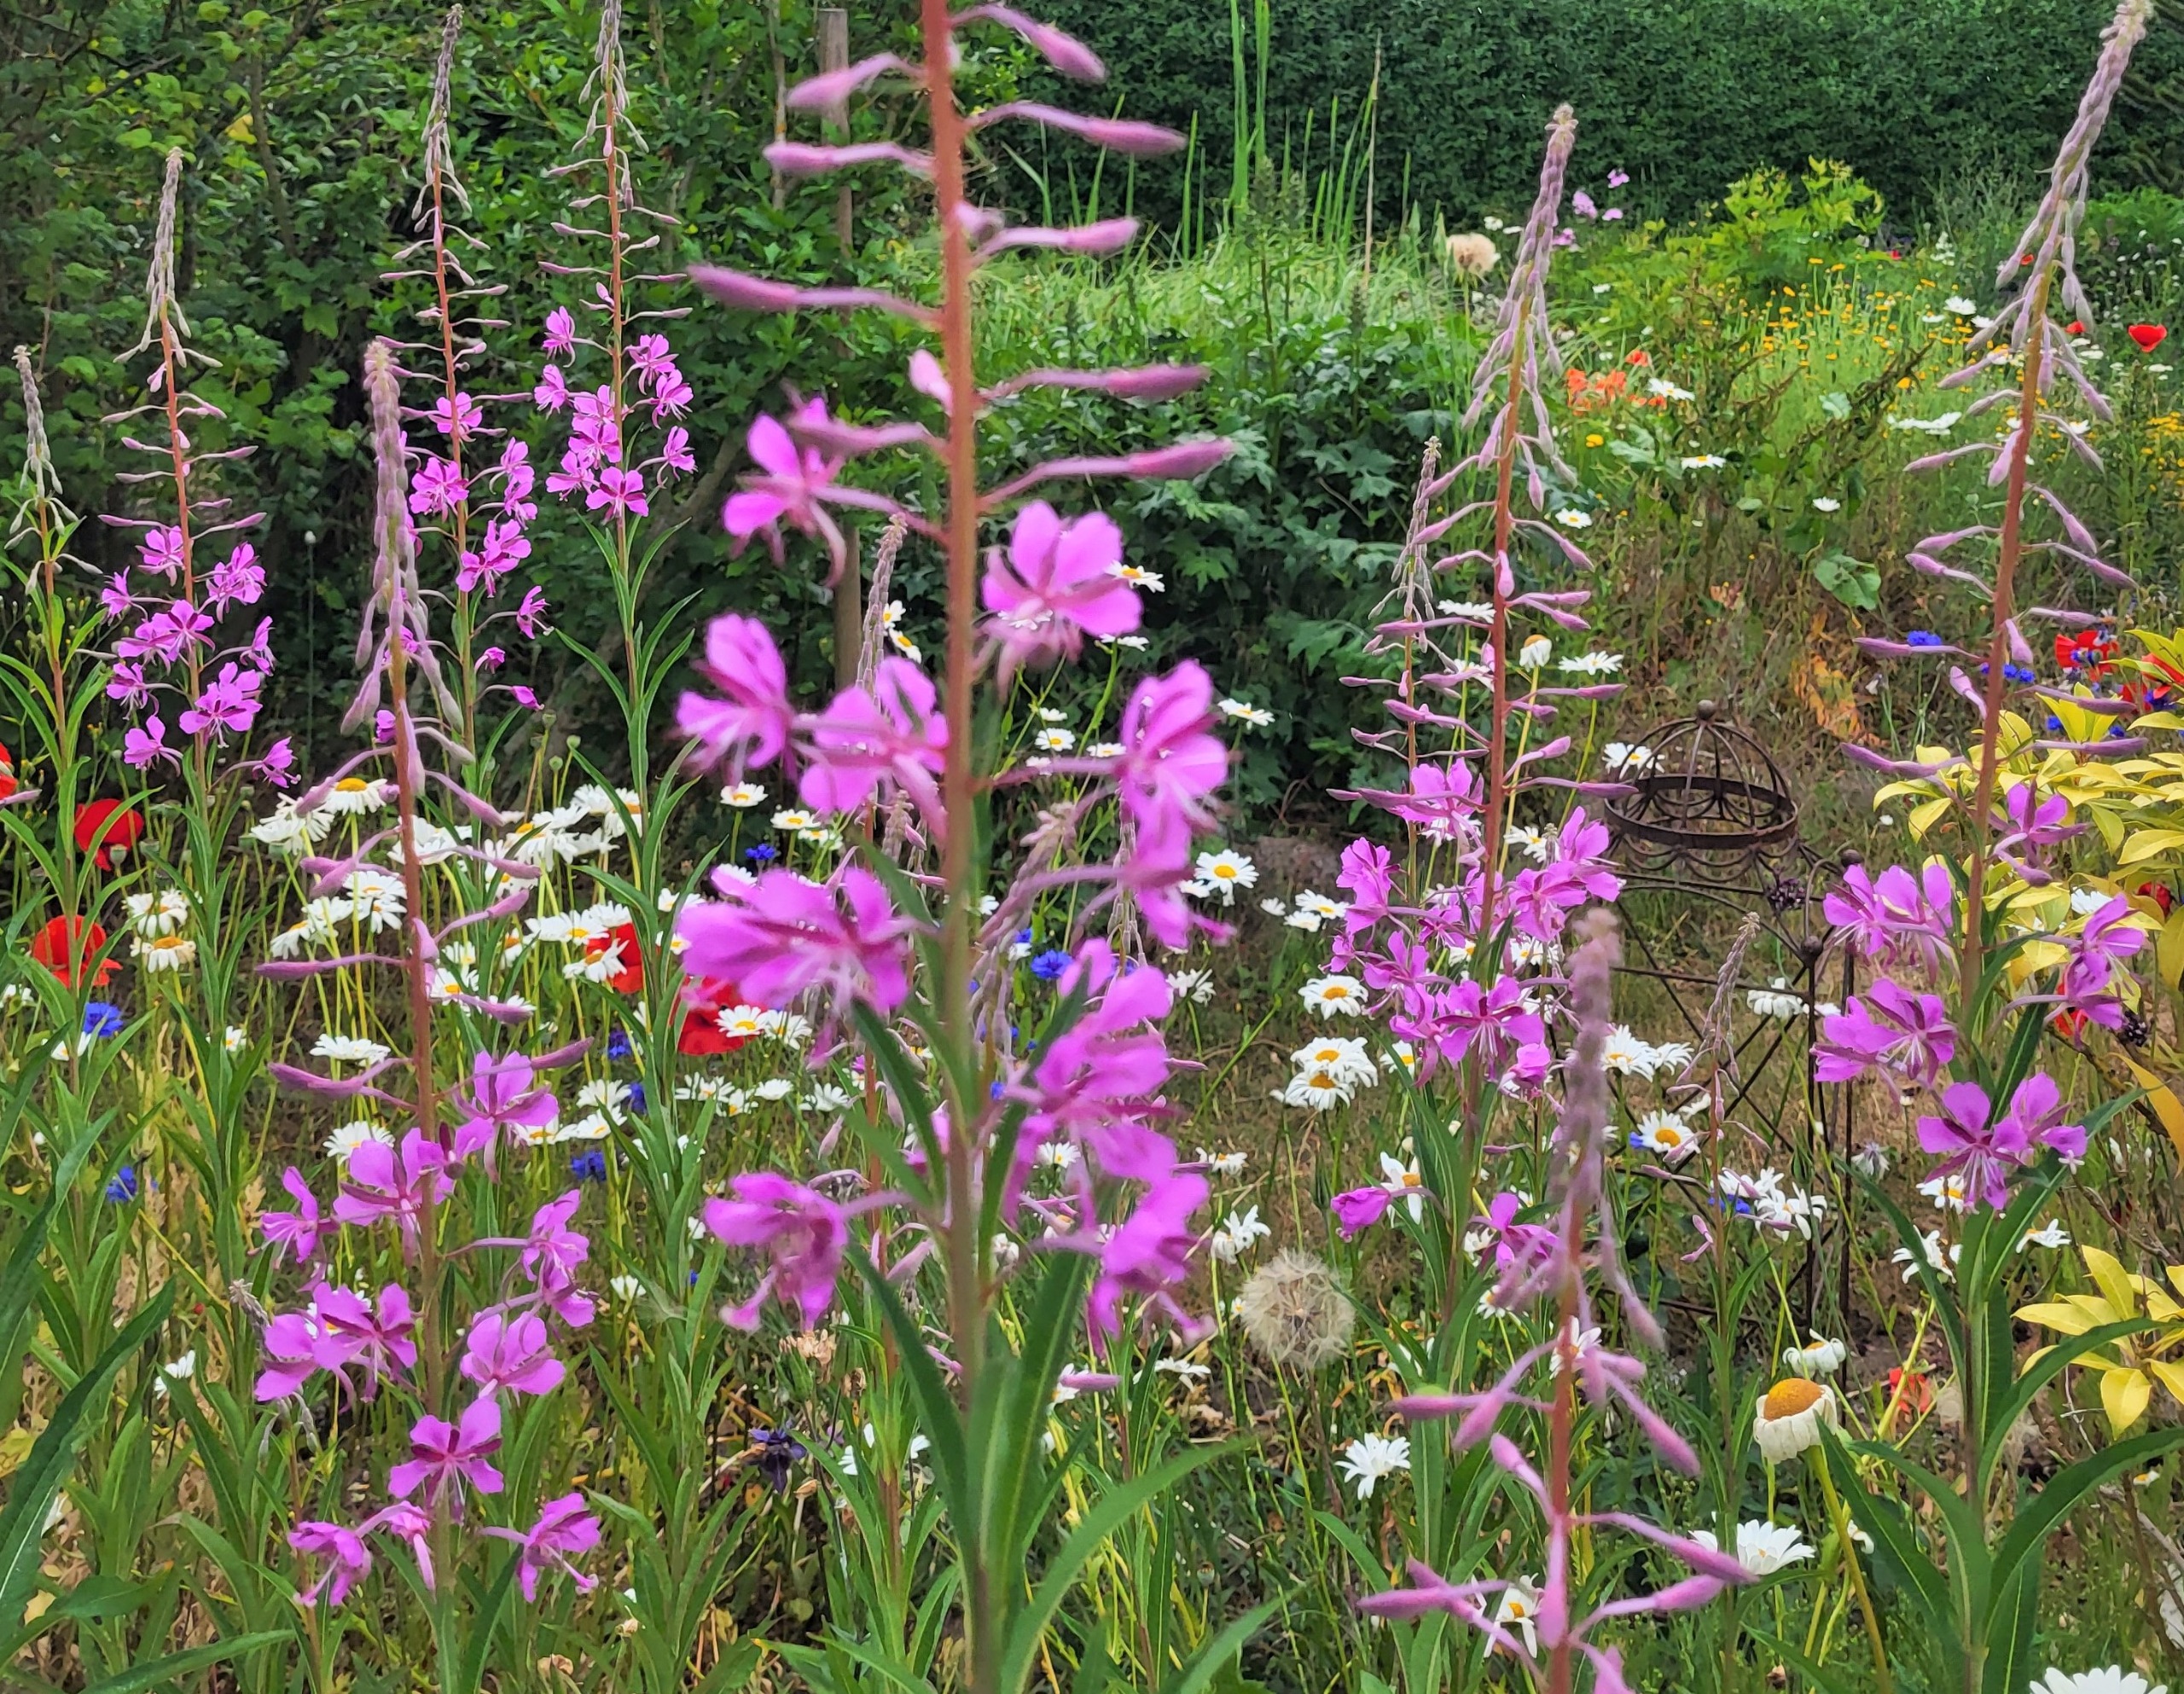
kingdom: Plantae
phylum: Tracheophyta
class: Magnoliopsida
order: Myrtales
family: Onagraceae
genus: Chamaenerion
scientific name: Chamaenerion angustifolium
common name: Gederams
